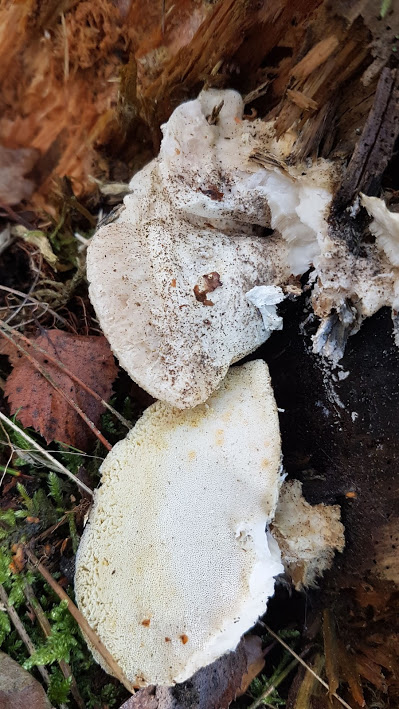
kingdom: Fungi
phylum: Basidiomycota
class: Agaricomycetes
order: Polyporales
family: Dacryobolaceae
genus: Postia
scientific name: Postia
